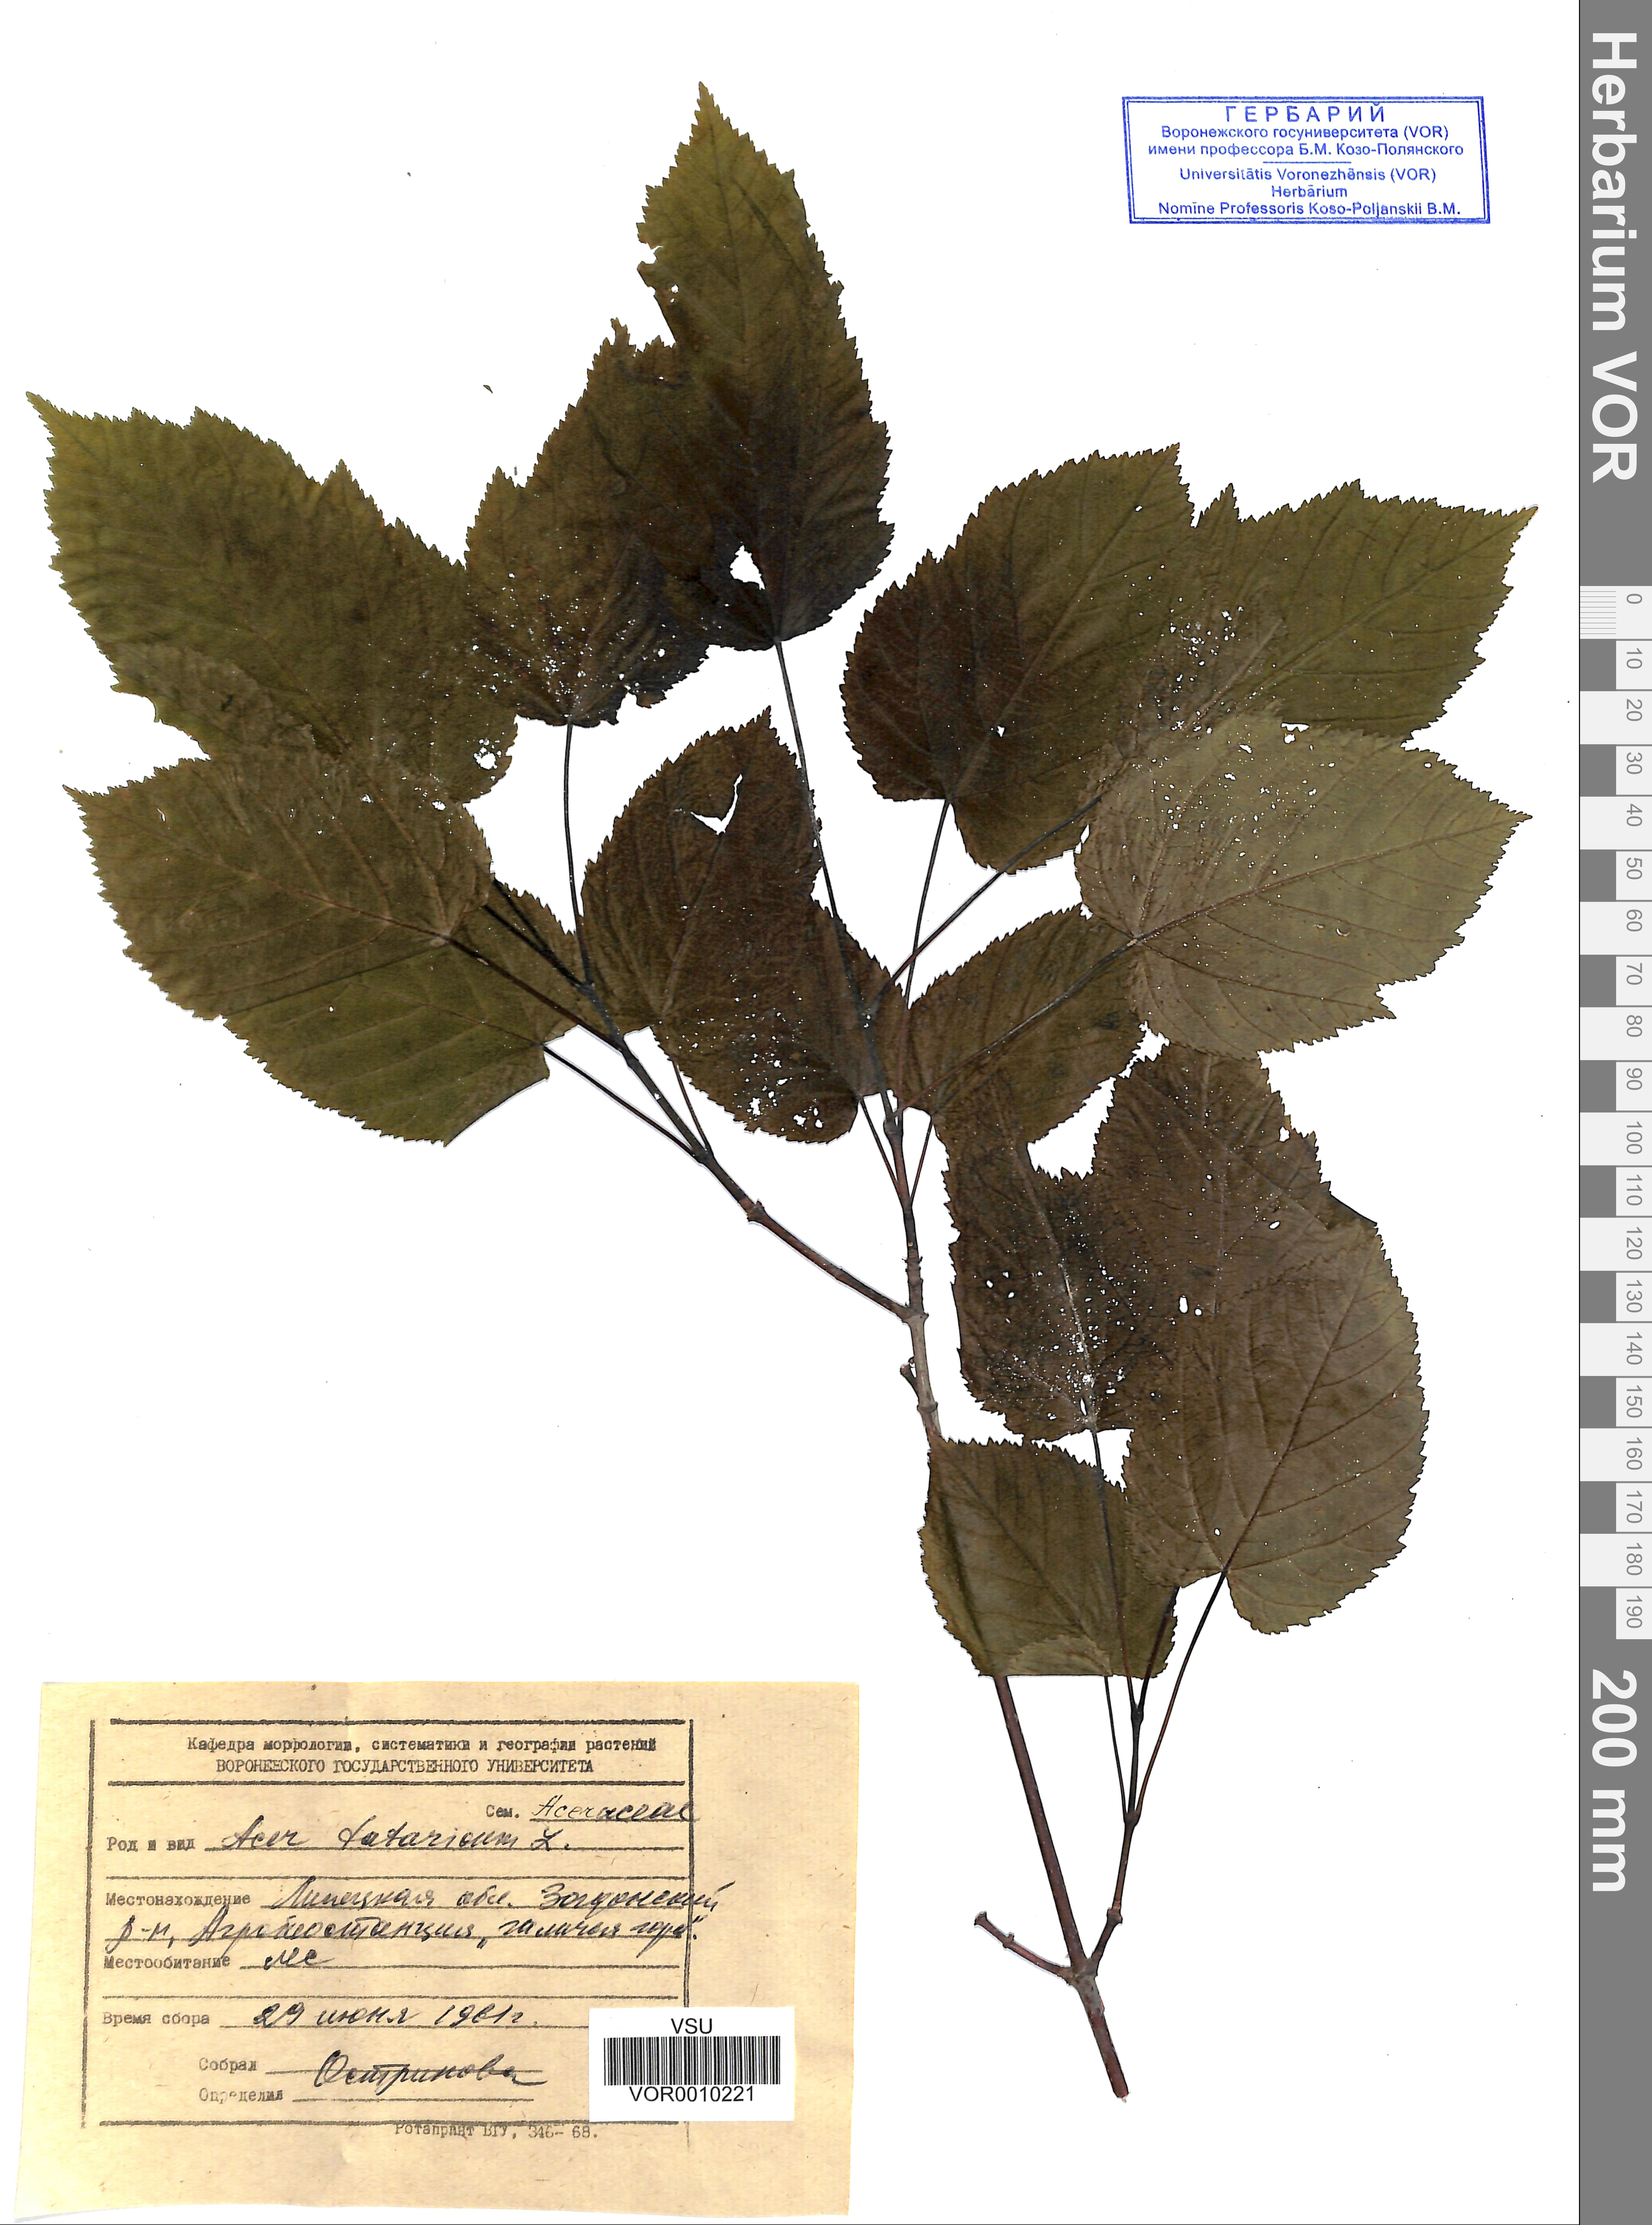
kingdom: Plantae
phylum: Tracheophyta
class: Magnoliopsida
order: Sapindales
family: Sapindaceae
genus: Acer
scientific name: Acer tataricum
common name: Tartar maple
